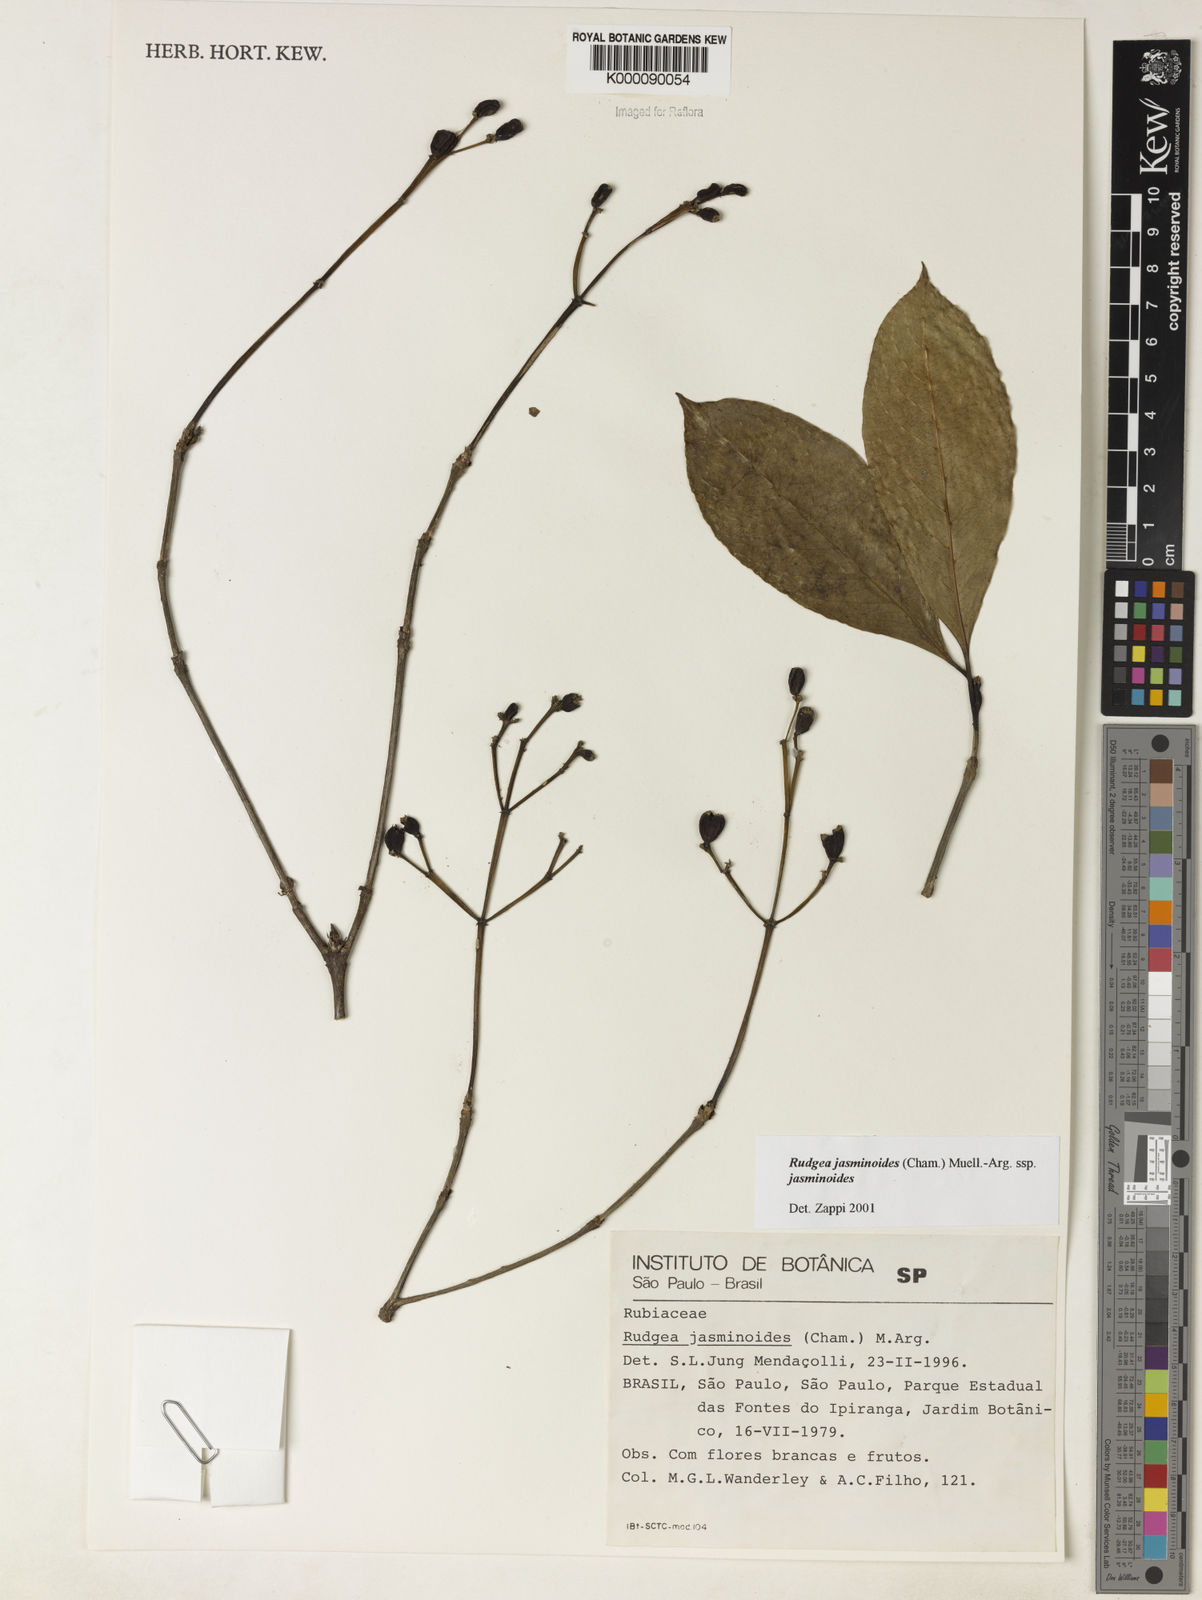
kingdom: Plantae
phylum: Tracheophyta
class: Magnoliopsida
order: Gentianales
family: Rubiaceae
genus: Rudgea
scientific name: Rudgea jasminoides
